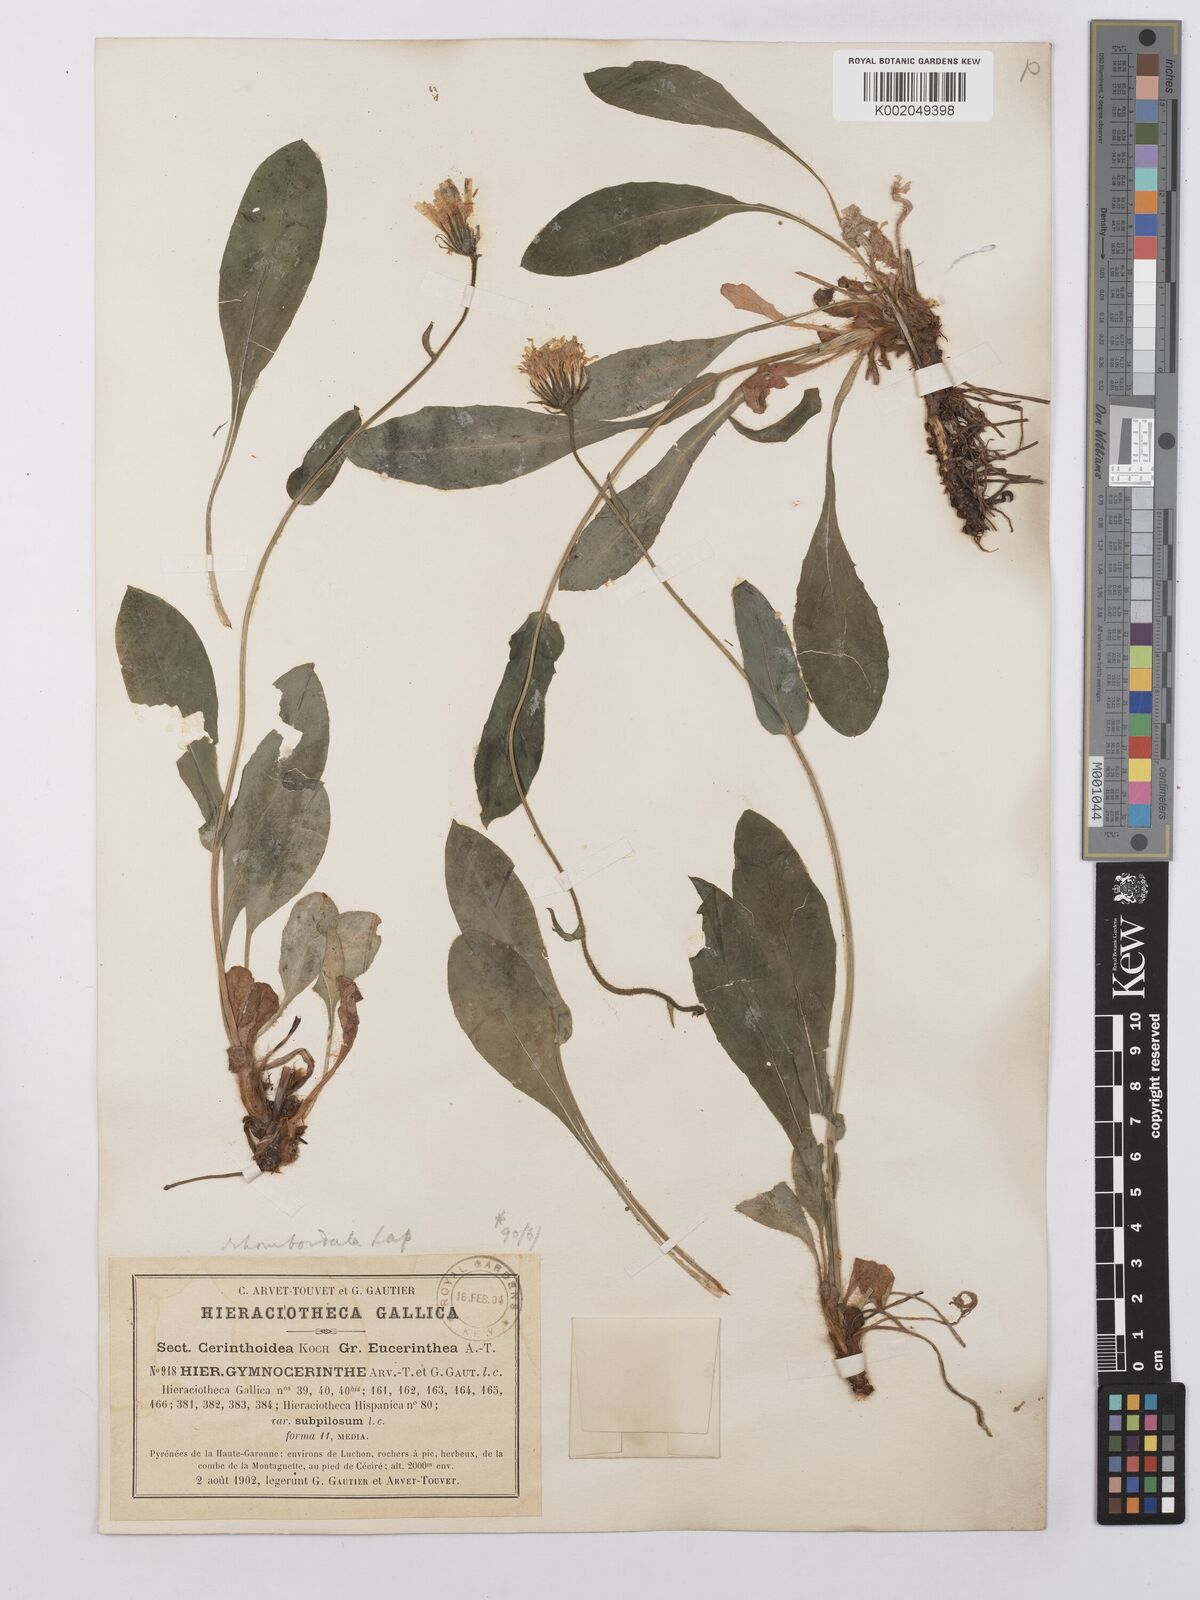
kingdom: Plantae
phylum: Tracheophyta
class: Magnoliopsida
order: Asterales
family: Asteraceae
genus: Hieracium
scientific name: Hieracium cerinthoides
